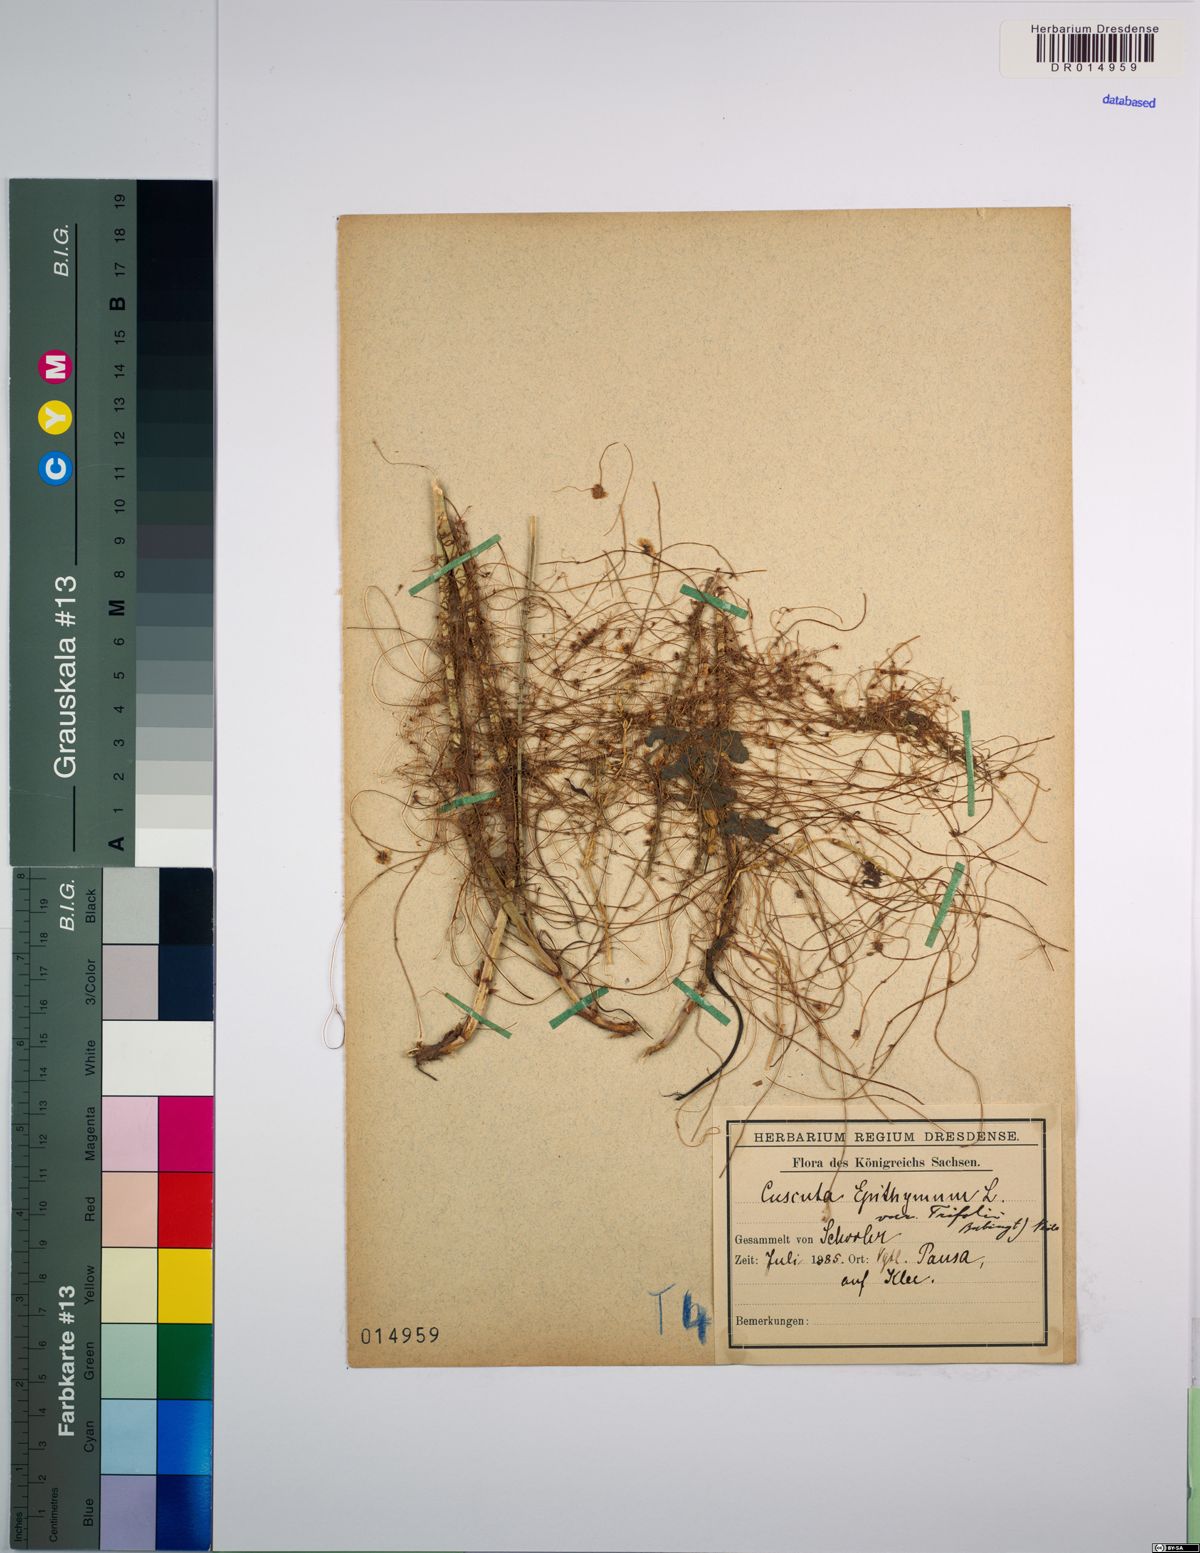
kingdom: Plantae
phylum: Tracheophyta
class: Magnoliopsida
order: Solanales
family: Convolvulaceae
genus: Cuscuta
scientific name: Cuscuta epithymum
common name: Clover dodder
